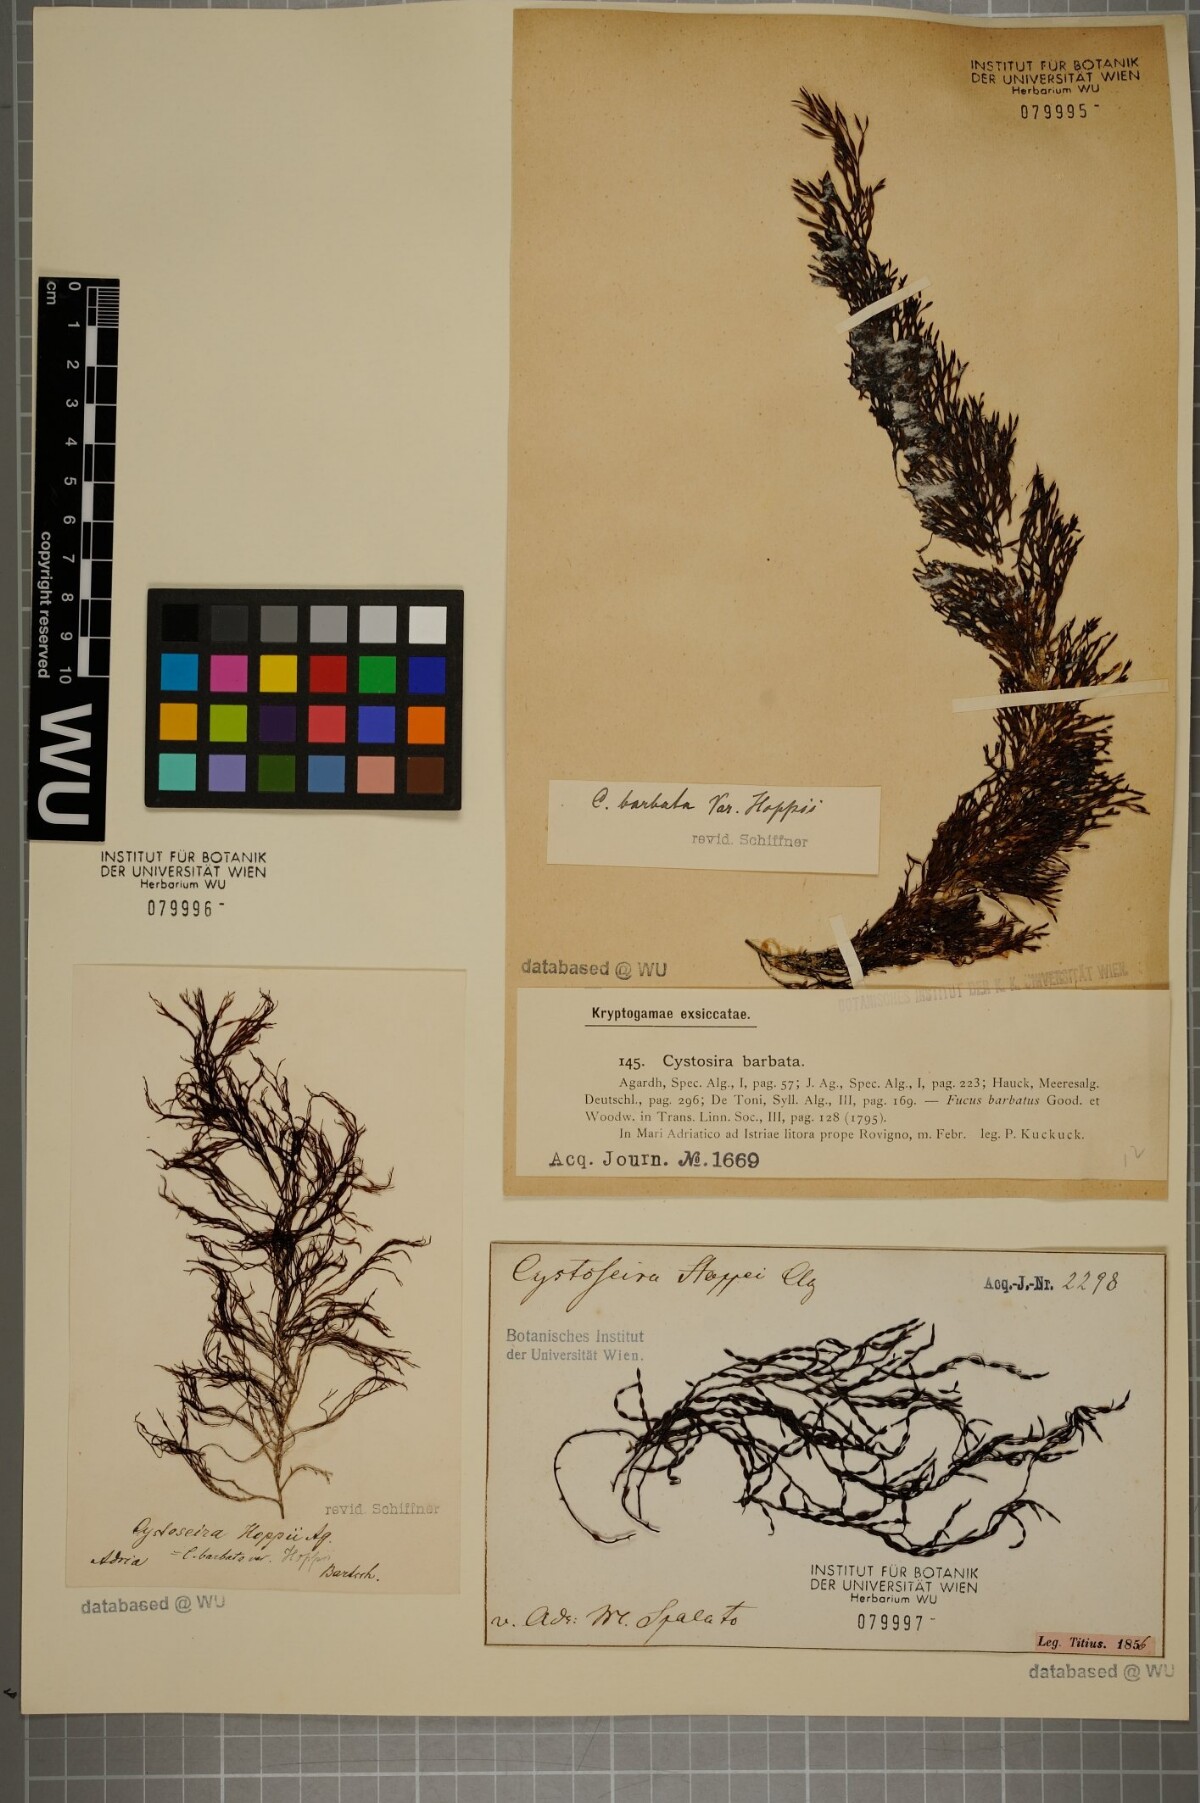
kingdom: Chromista
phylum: Ochrophyta
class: Phaeophyceae
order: Fucales
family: Sargassaceae
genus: Cystoseira
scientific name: Cystoseira Gongolaria barbata
